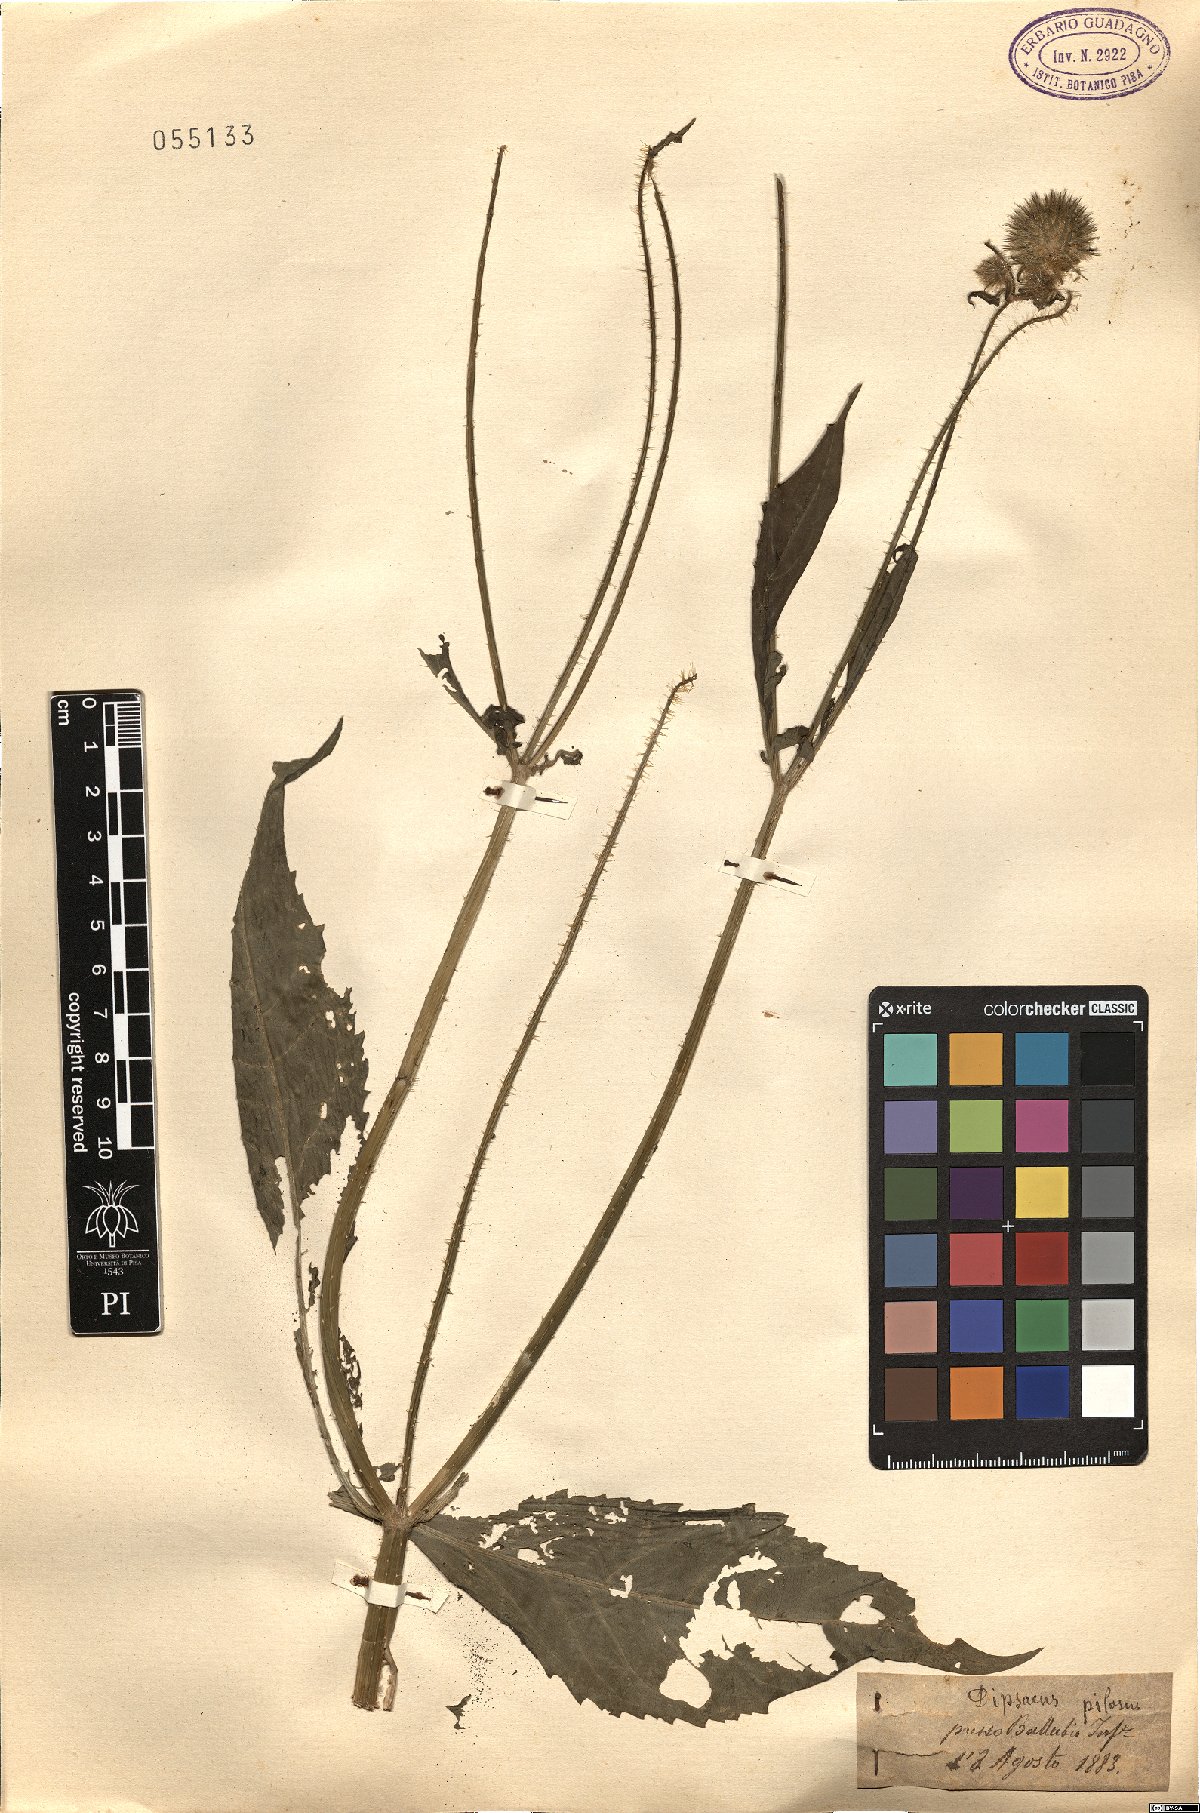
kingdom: Plantae
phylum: Tracheophyta
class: Magnoliopsida
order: Dipsacales
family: Caprifoliaceae
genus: Dipsacus
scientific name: Dipsacus pilosus
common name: Small teasel
